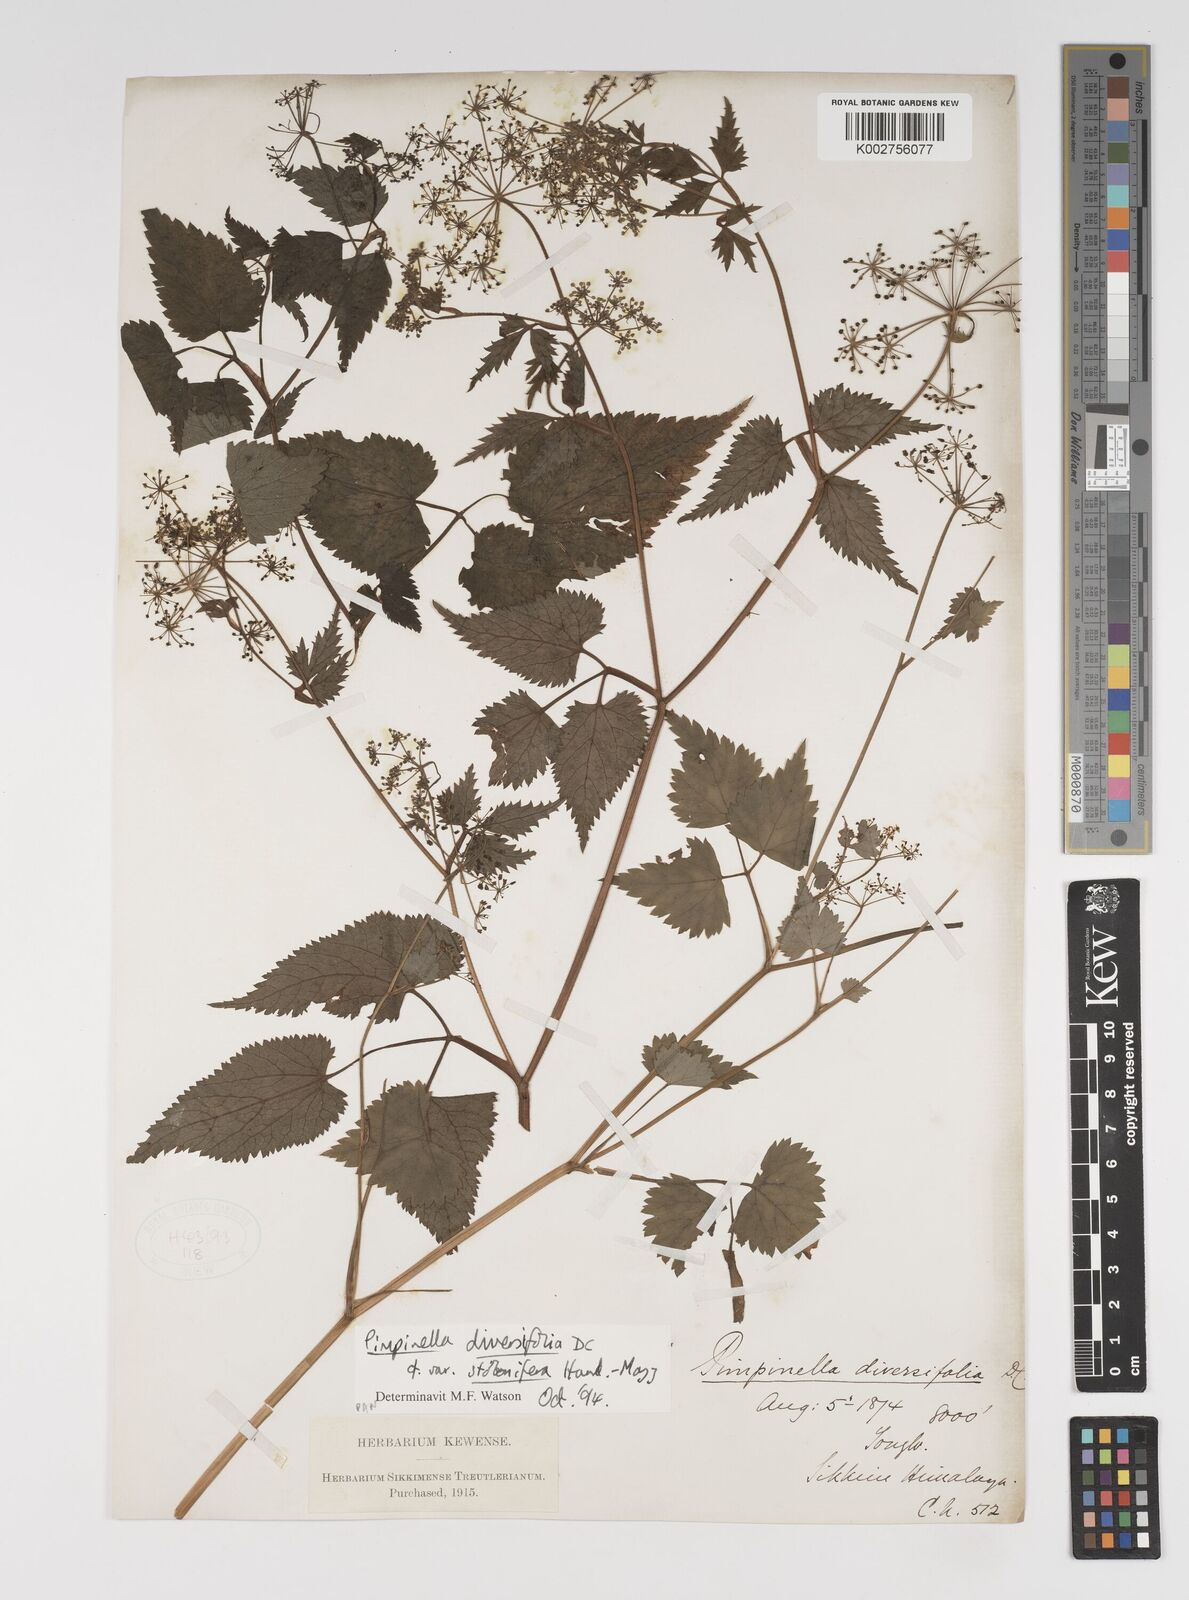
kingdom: Plantae
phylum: Tracheophyta
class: Magnoliopsida
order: Apiales
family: Apiaceae
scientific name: Apiaceae
